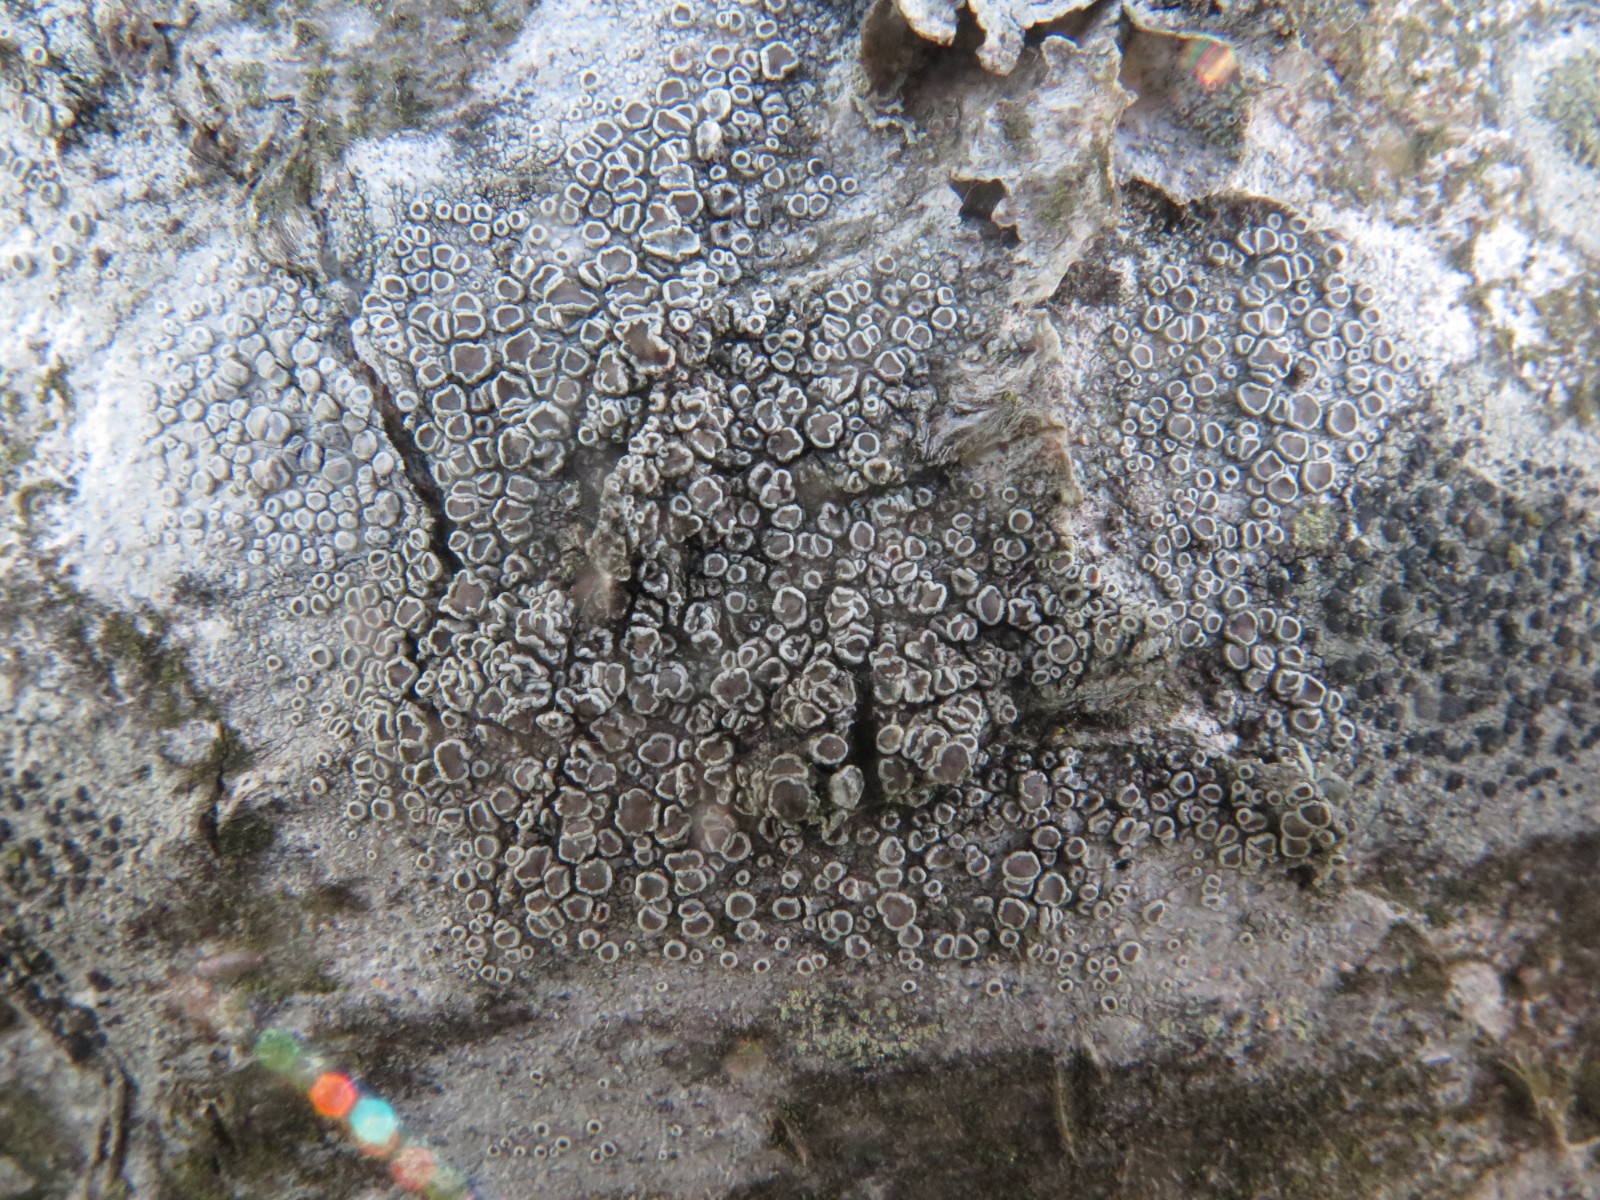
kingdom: Fungi
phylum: Ascomycota
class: Lecanoromycetes
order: Lecanorales
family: Lecanoraceae
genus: Lecanora
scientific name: Lecanora chlarotera
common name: brun kantskivelav
